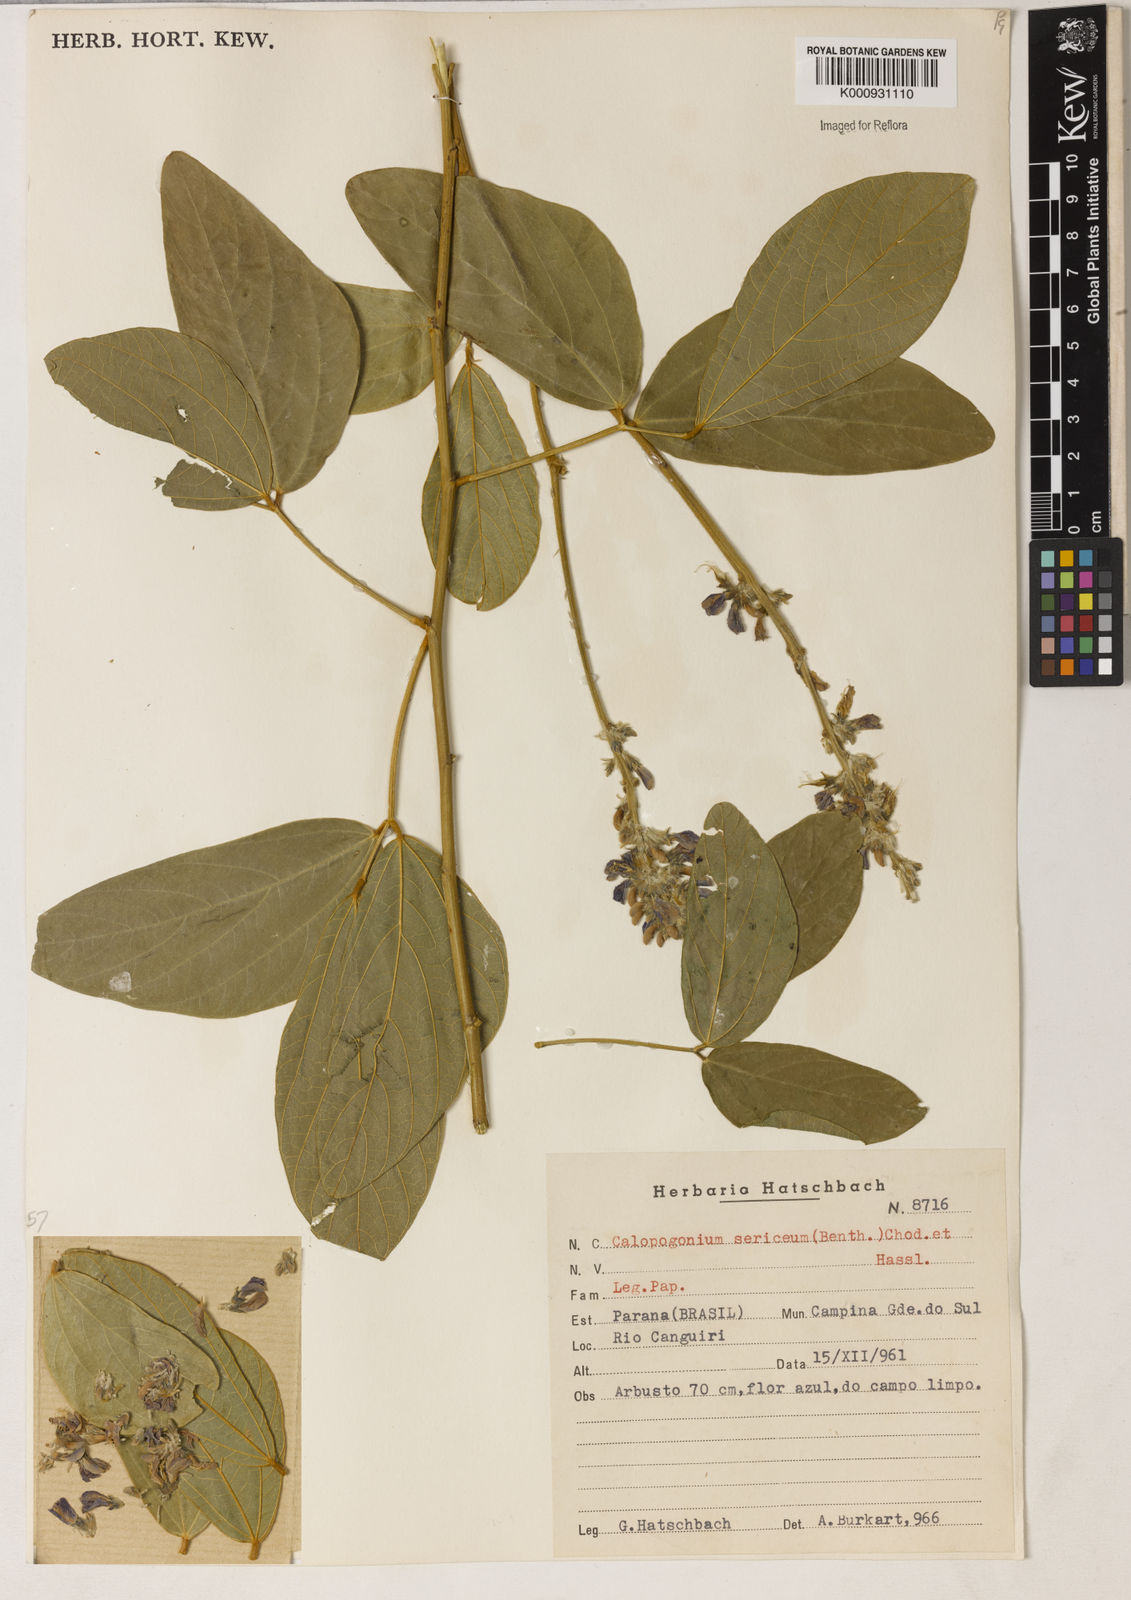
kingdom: Plantae
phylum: Tracheophyta
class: Magnoliopsida
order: Fabales
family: Fabaceae
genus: Calopogonium
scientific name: Calopogonium sericeum
